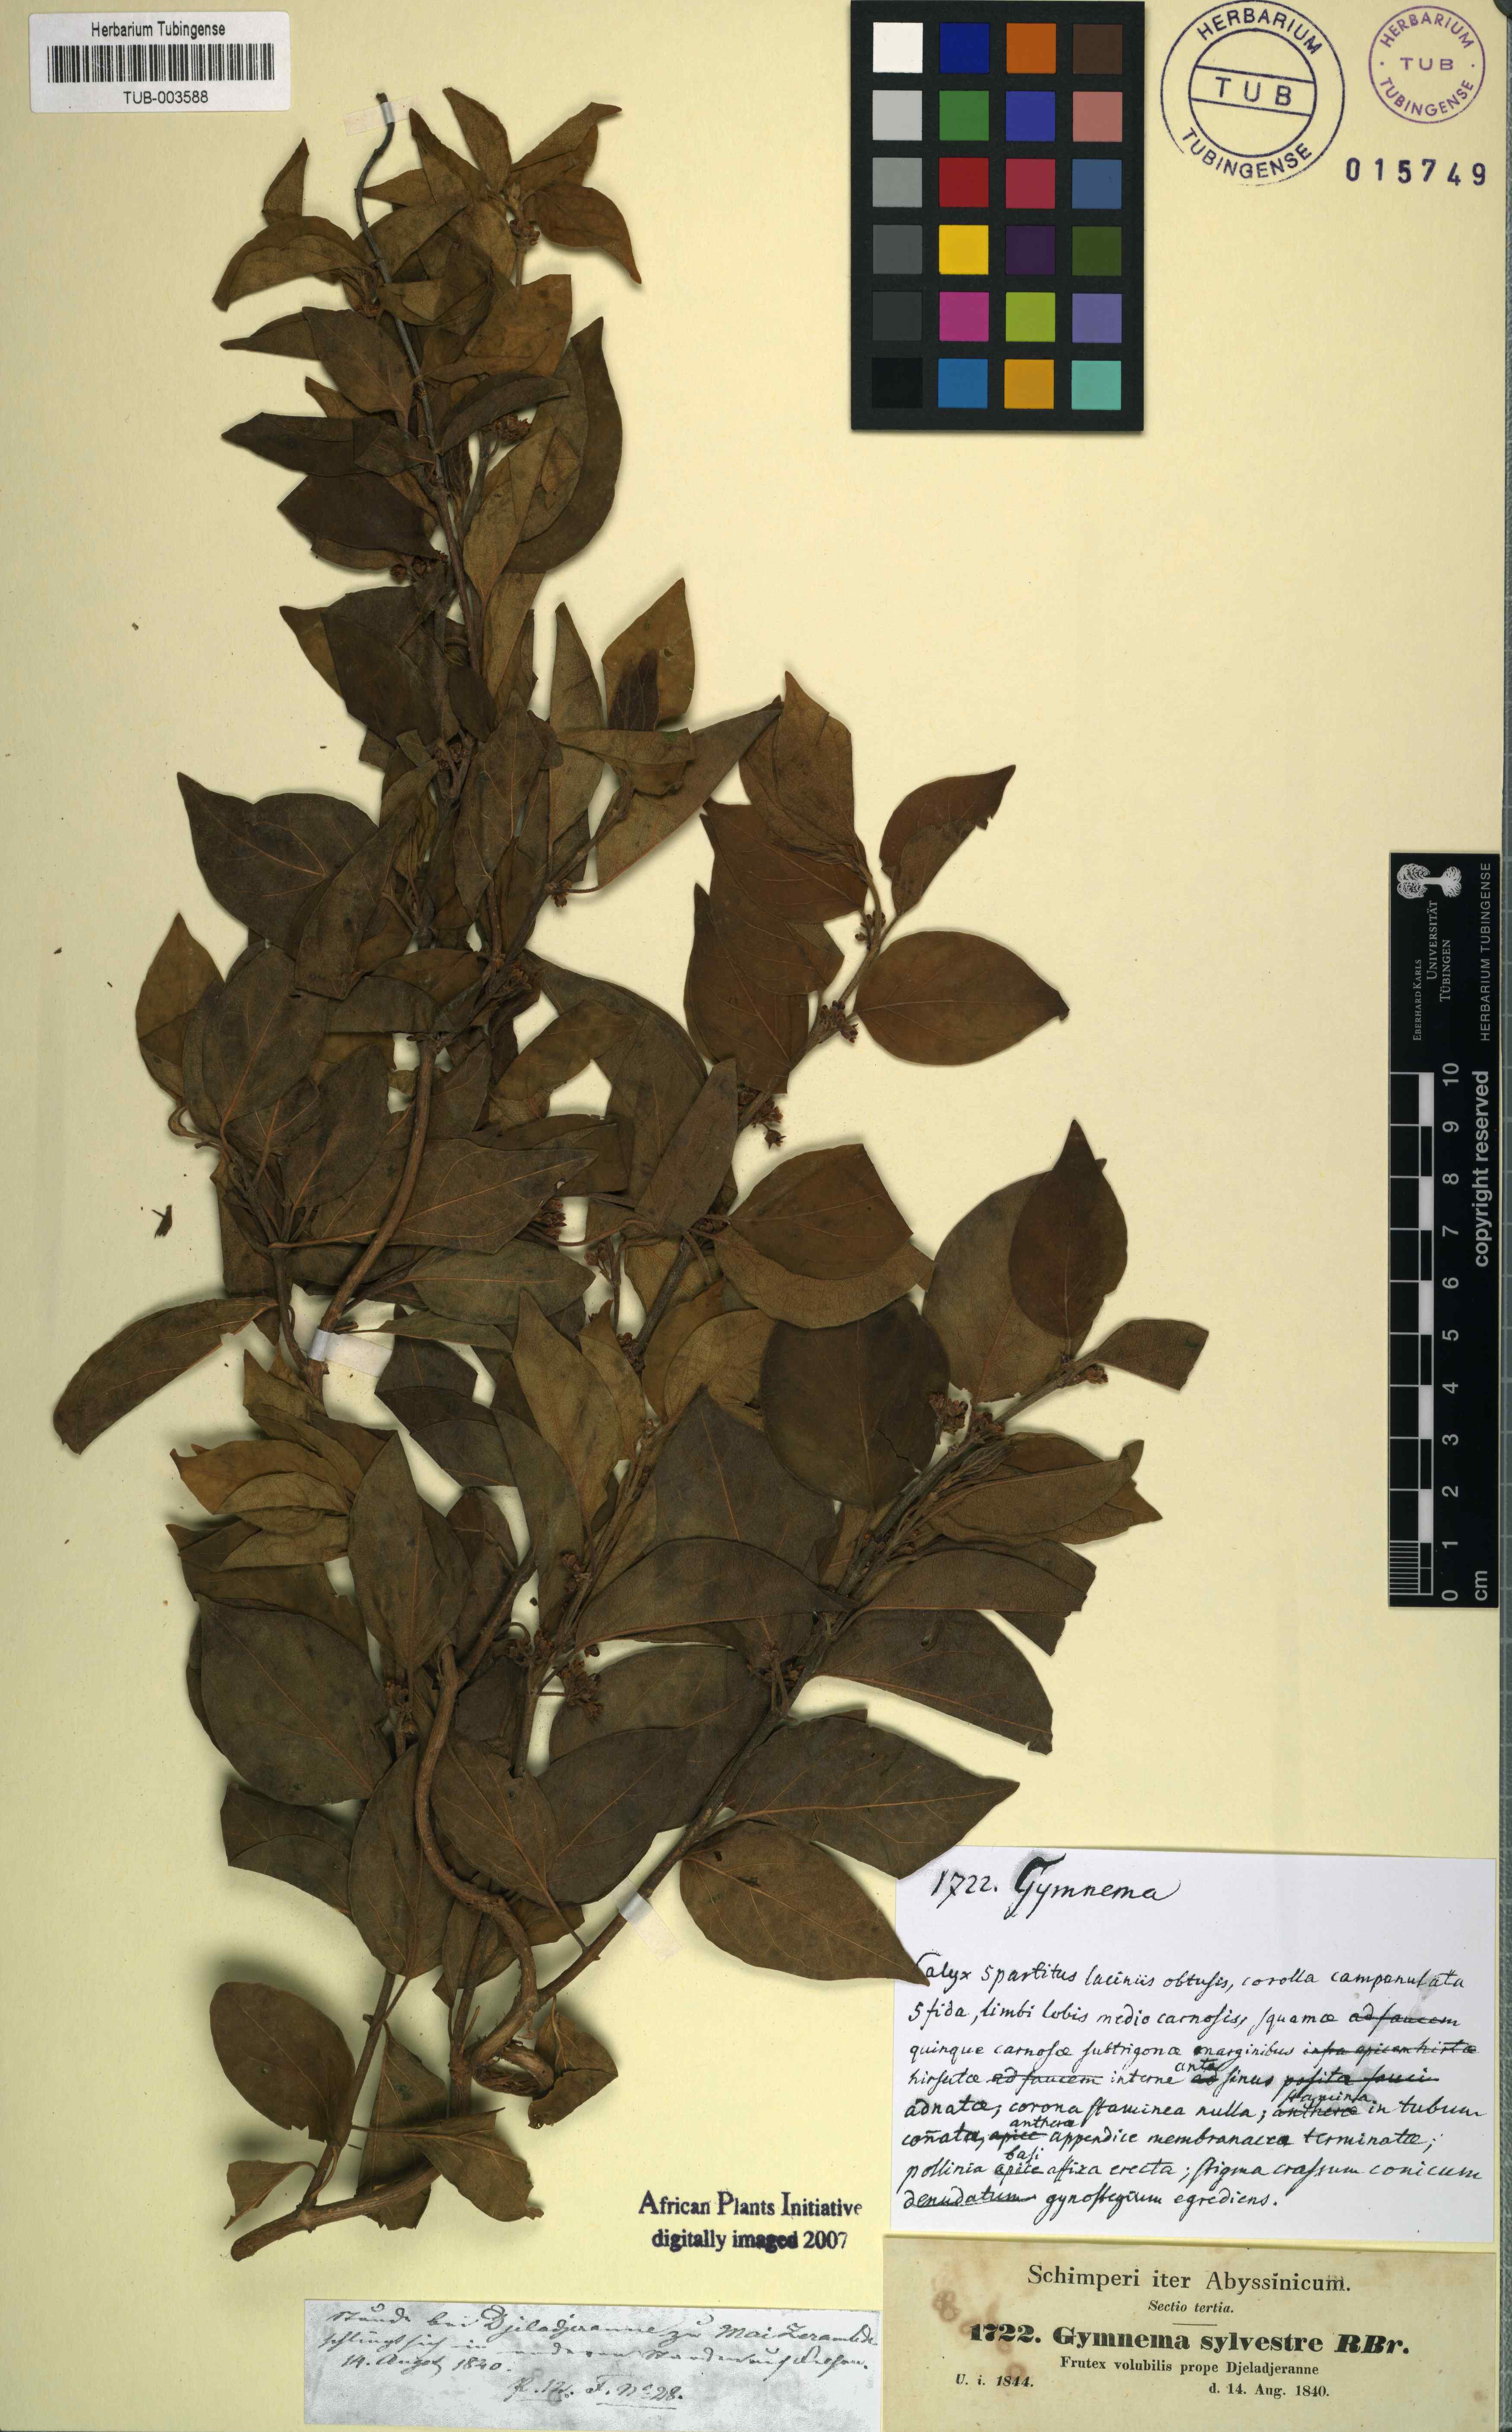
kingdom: Plantae
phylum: Tracheophyta
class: Magnoliopsida
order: Gentianales
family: Apocynaceae
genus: Gymnema
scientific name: Gymnema sylvestre
